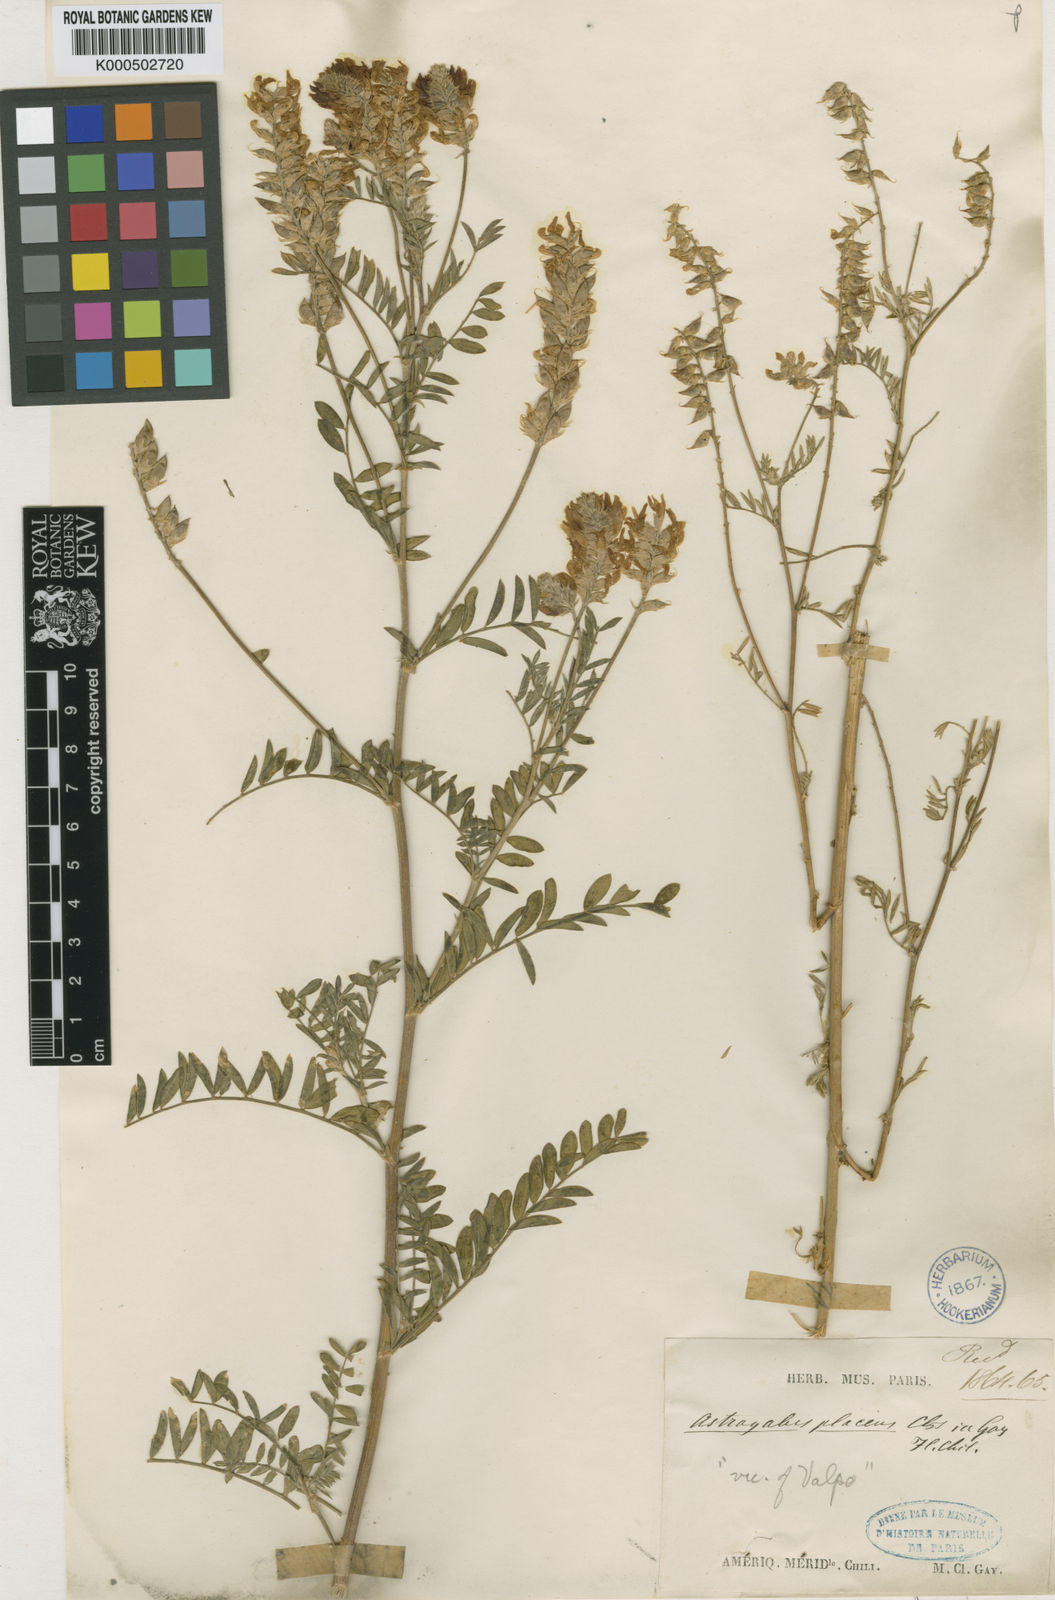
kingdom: Plantae
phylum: Tracheophyta
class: Magnoliopsida
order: Fabales
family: Fabaceae
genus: Astragalus
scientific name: Astragalus chamissonis
